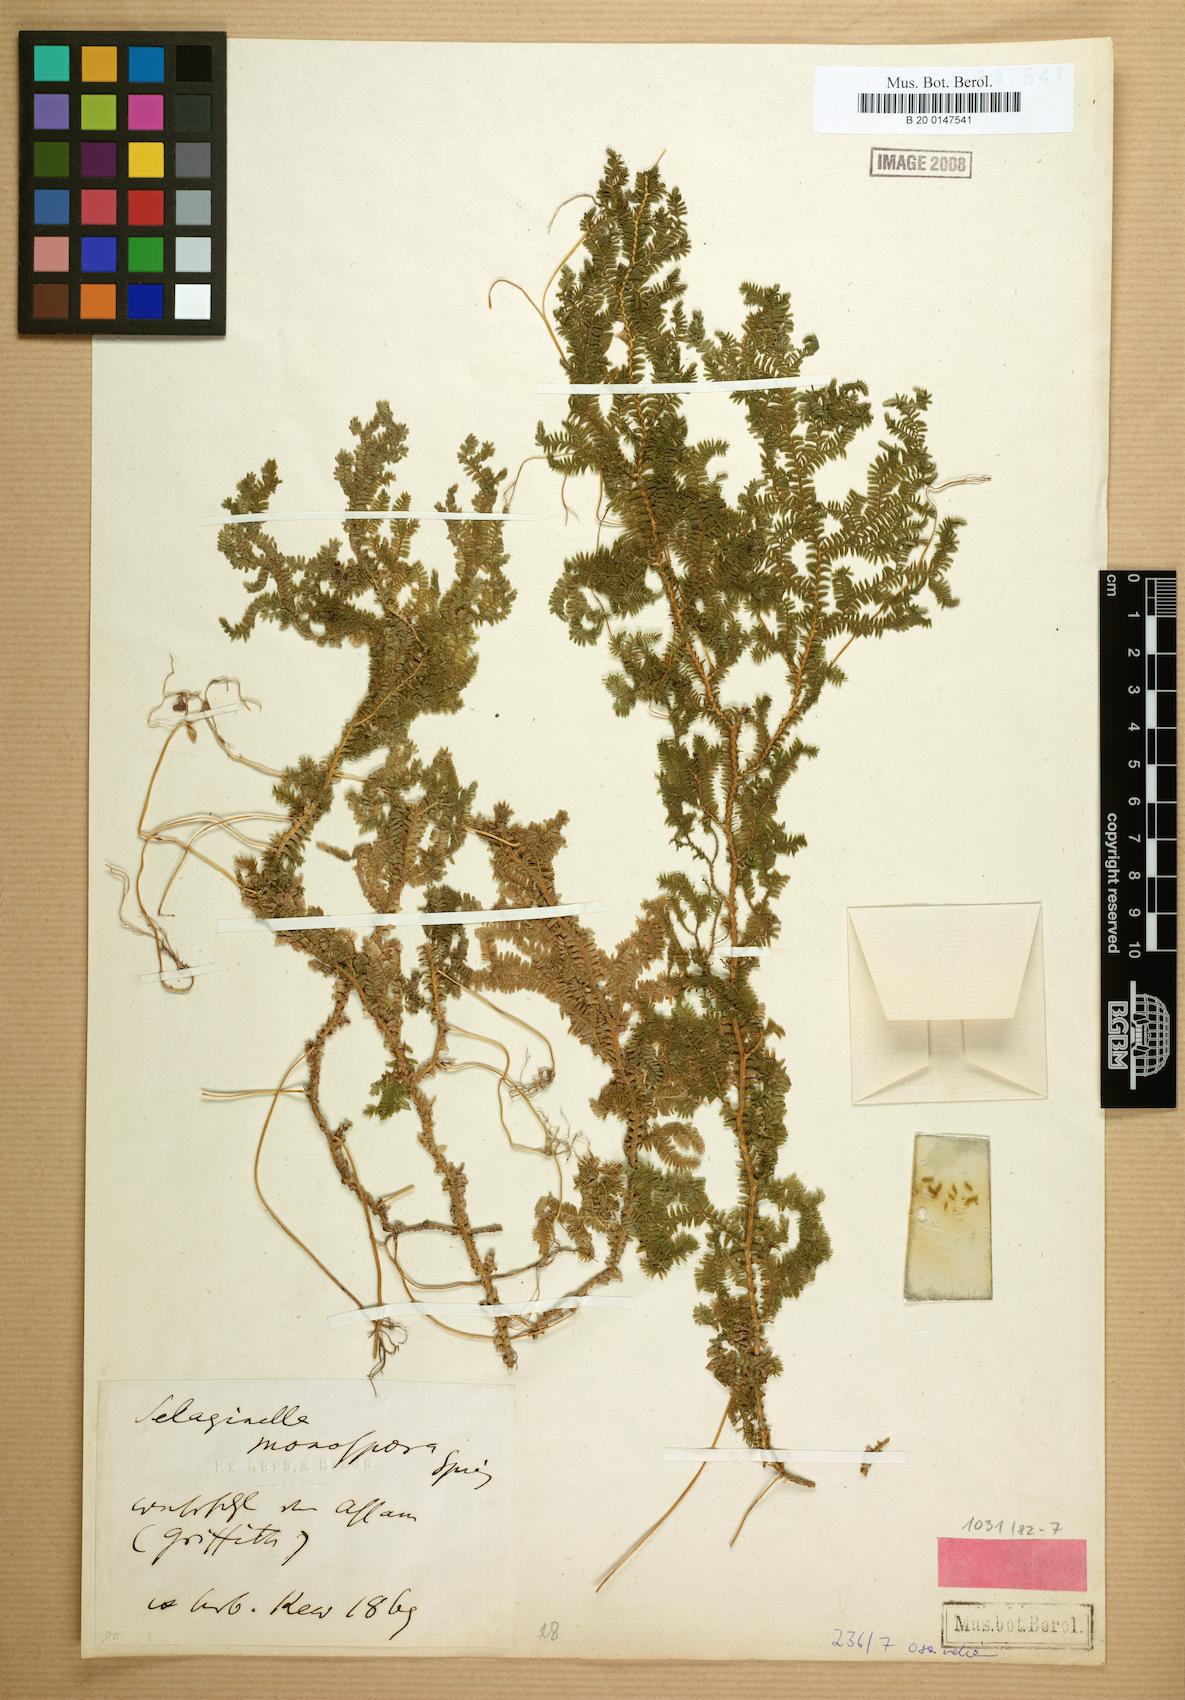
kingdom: Plantae
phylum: Tracheophyta
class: Lycopodiopsida
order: Selaginellales
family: Selaginellaceae
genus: Selaginella
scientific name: Selaginella monospora
